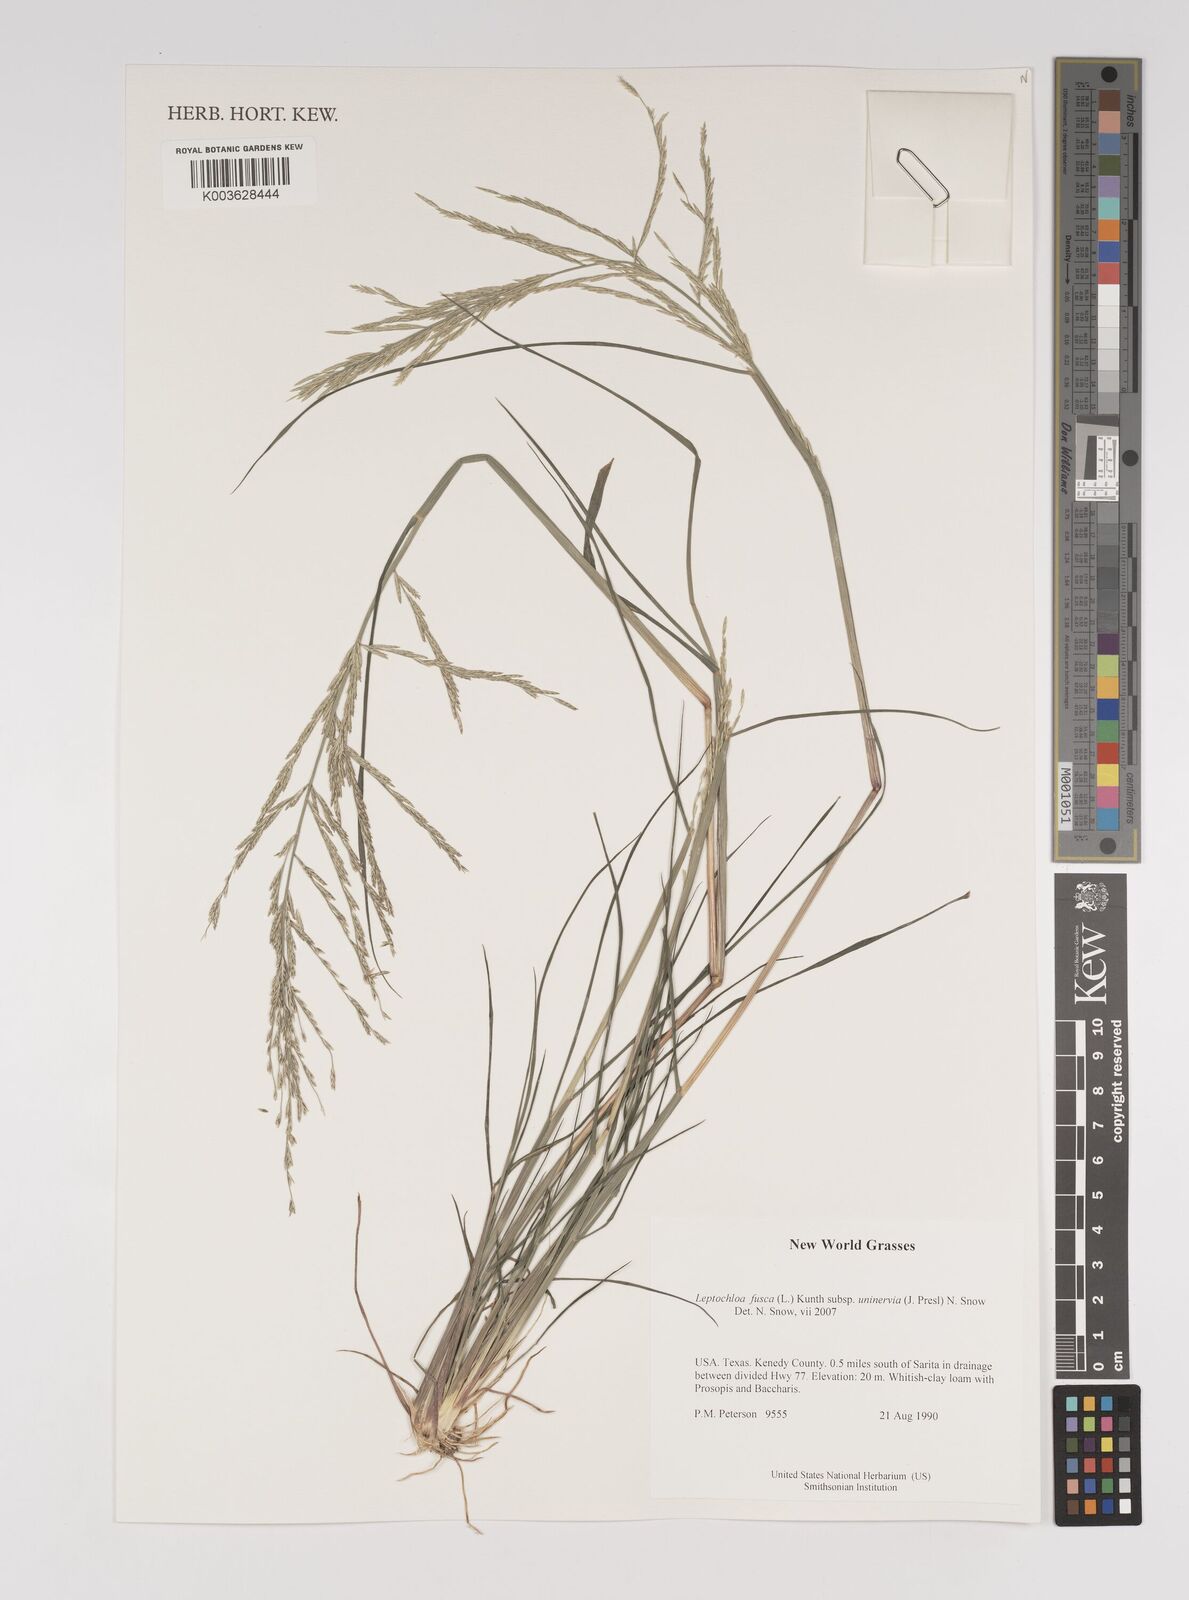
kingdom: Plantae
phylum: Tracheophyta
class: Liliopsida
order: Poales
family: Poaceae
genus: Diplachne
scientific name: Diplachne fusca
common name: Brown beetle grass
